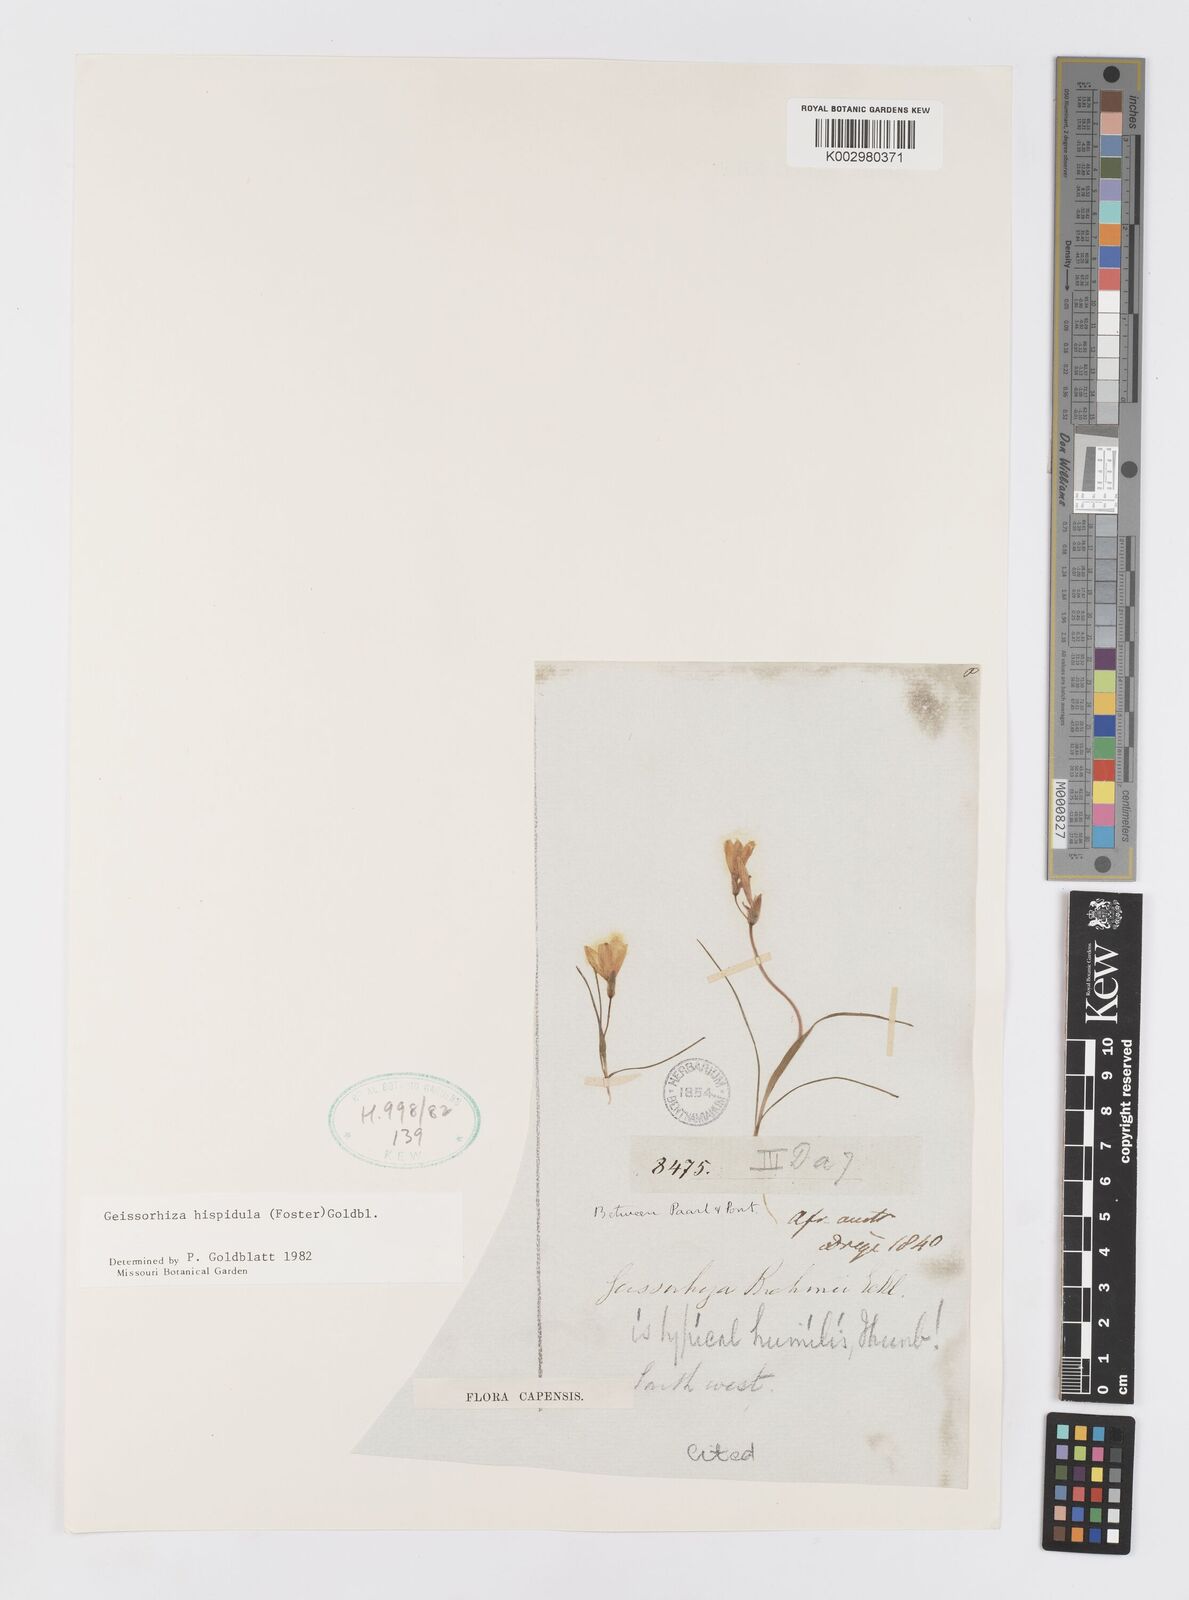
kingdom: Plantae
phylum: Tracheophyta
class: Liliopsida
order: Asparagales
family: Iridaceae
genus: Geissorhiza
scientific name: Geissorhiza hispidula
